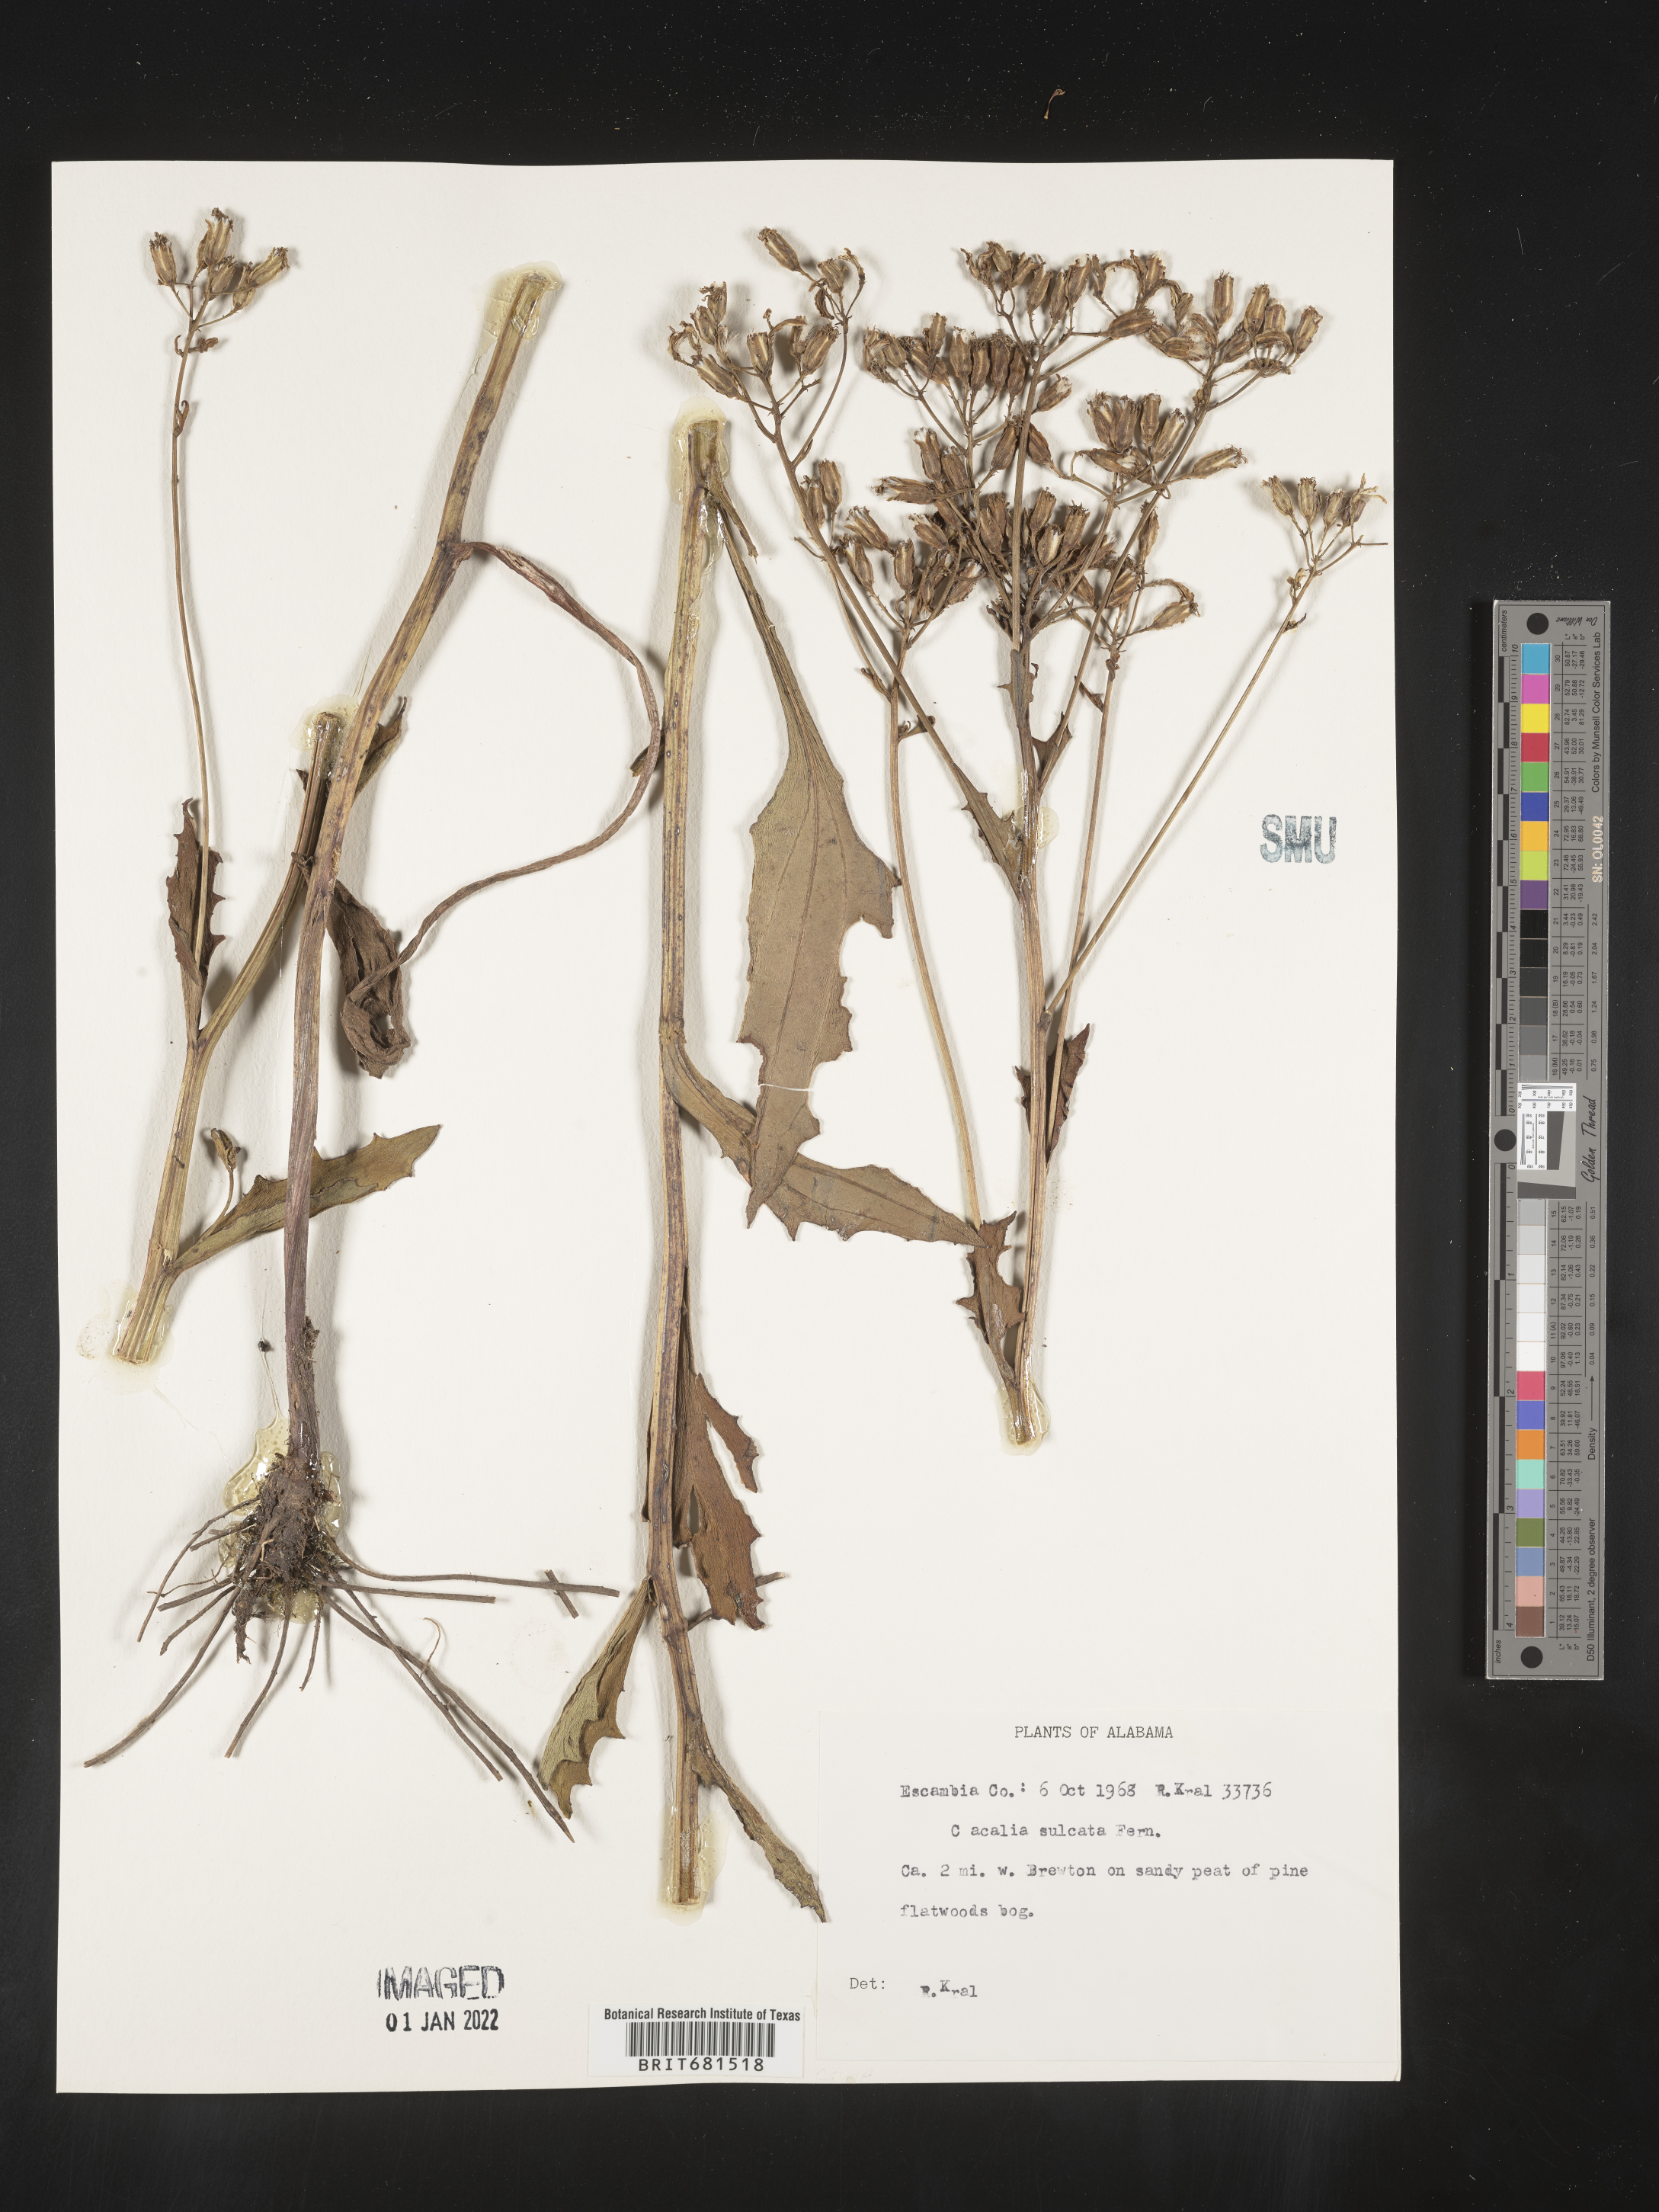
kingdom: Plantae
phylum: Tracheophyta
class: Magnoliopsida
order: Asterales
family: Asteraceae
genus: Arnoglossum
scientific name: Arnoglossum sulcatum
